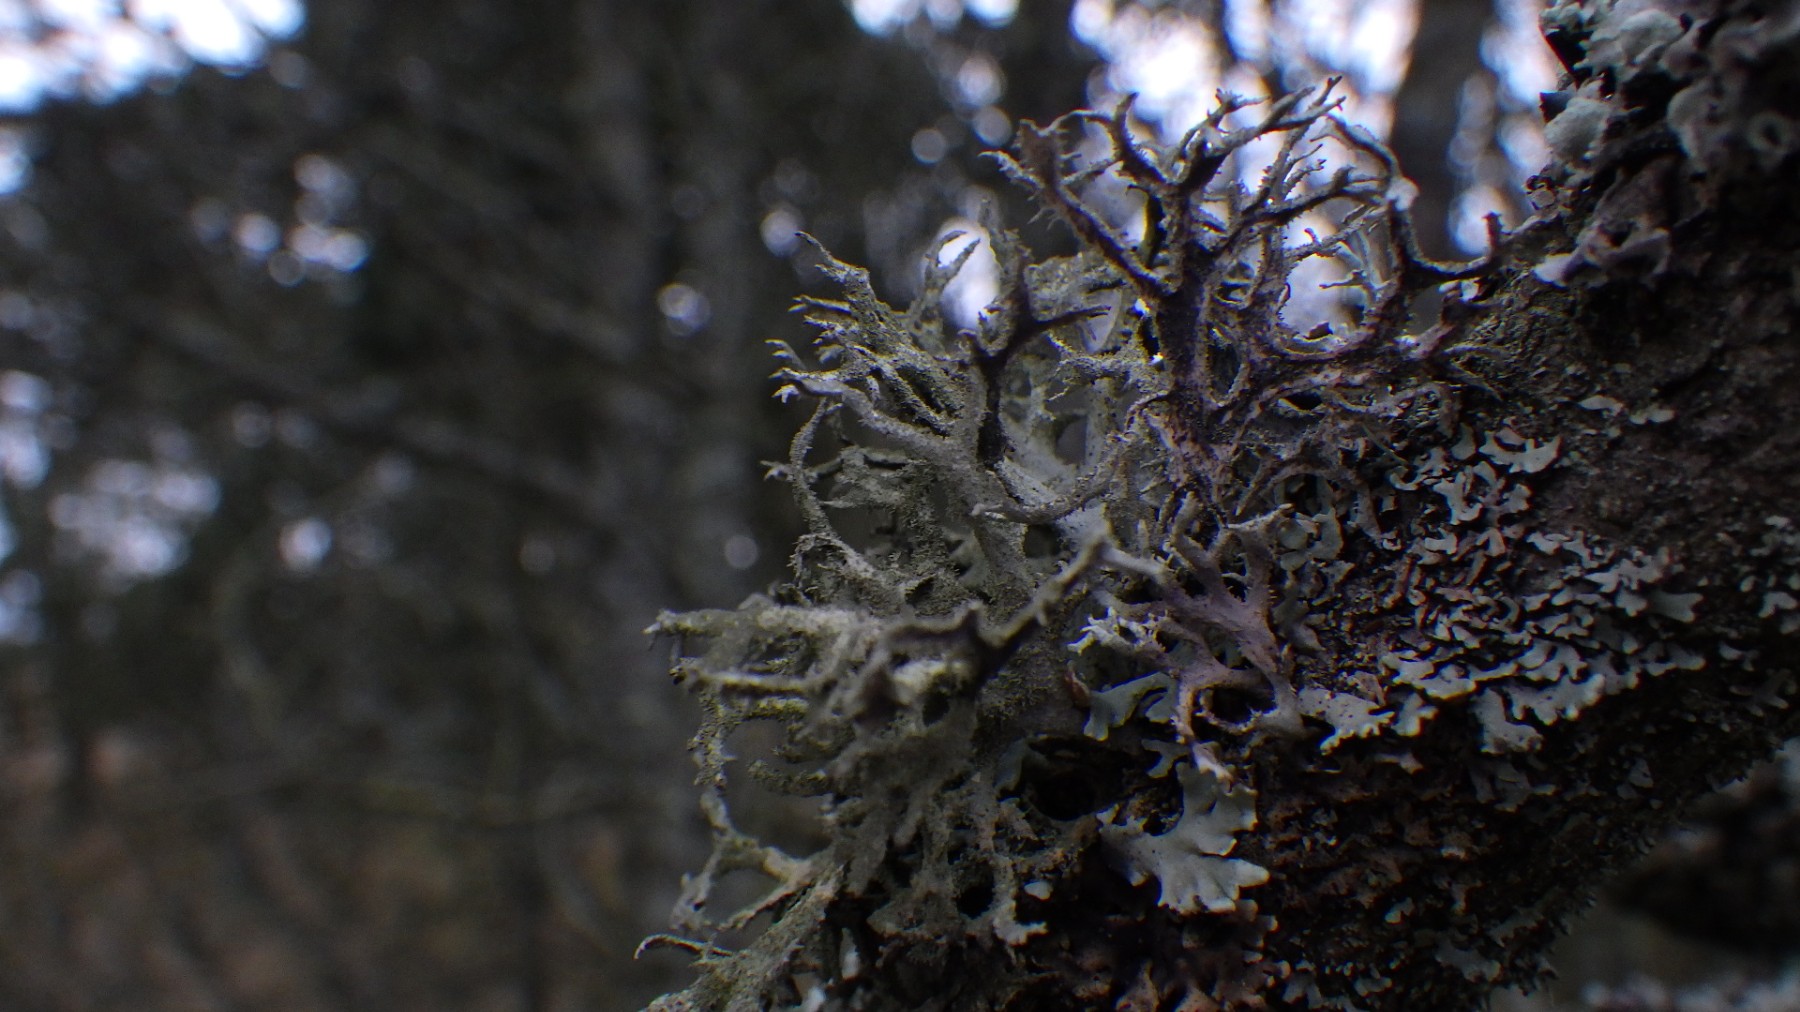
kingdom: Fungi
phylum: Ascomycota
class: Lecanoromycetes
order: Lecanorales
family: Parmeliaceae
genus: Pseudevernia
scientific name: Pseudevernia furfuracea
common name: grå fyrrelav
